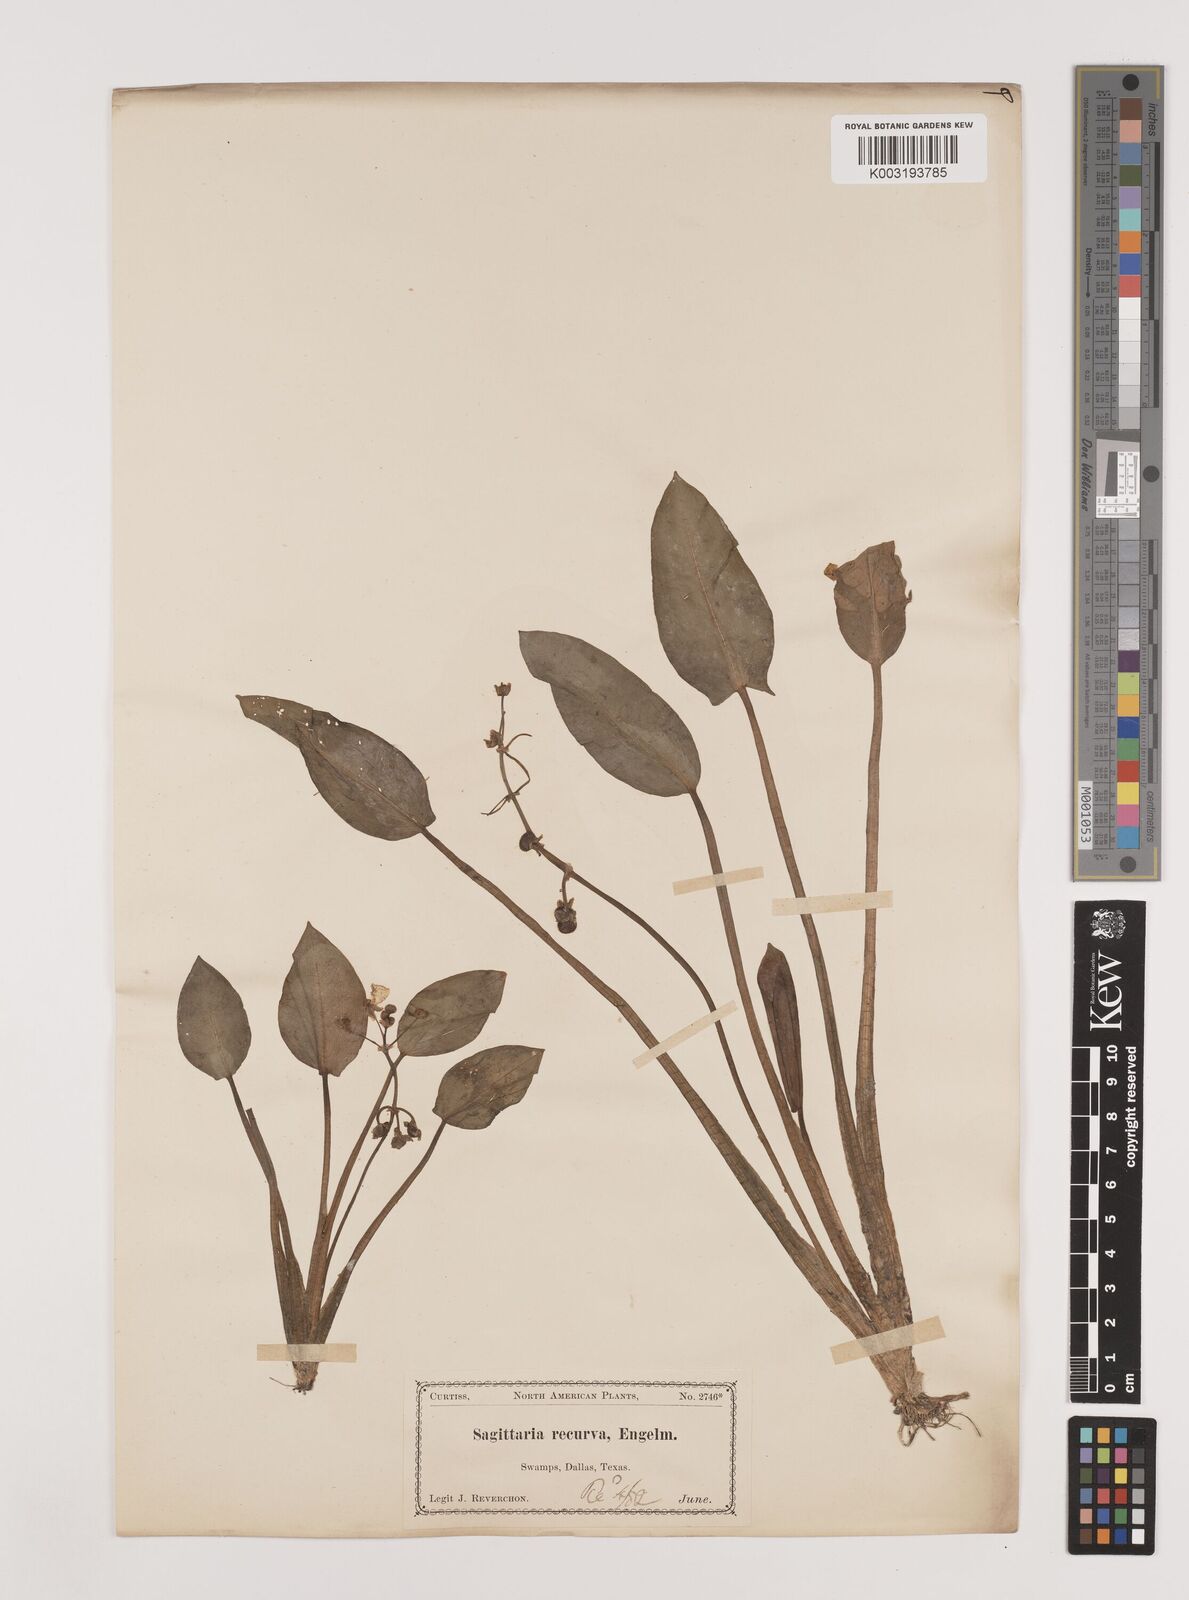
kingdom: Plantae
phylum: Tracheophyta
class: Liliopsida
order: Alismatales
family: Alismataceae
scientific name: Alismataceae
